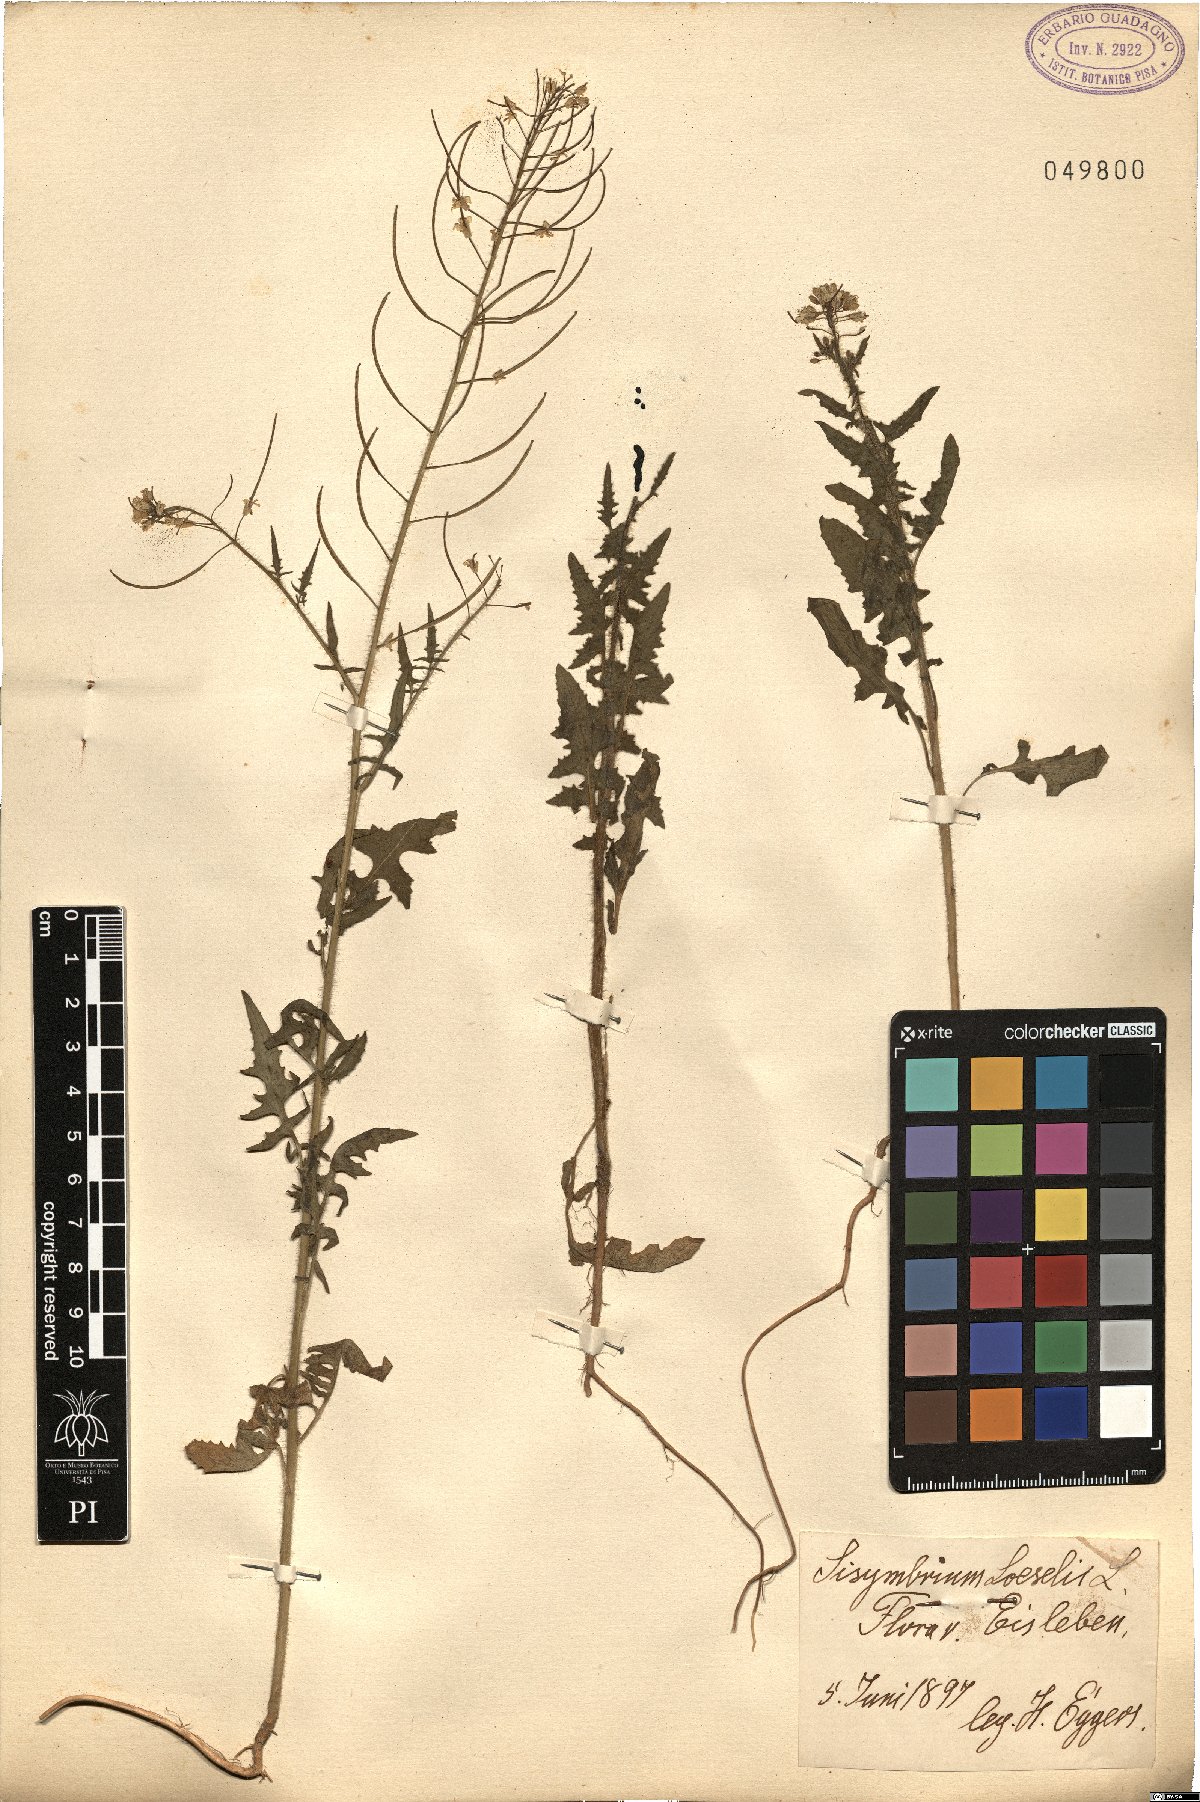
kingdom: Plantae
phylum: Tracheophyta
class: Magnoliopsida
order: Brassicales
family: Brassicaceae
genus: Sisymbrium
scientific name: Sisymbrium loeselii
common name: False london-rocket
